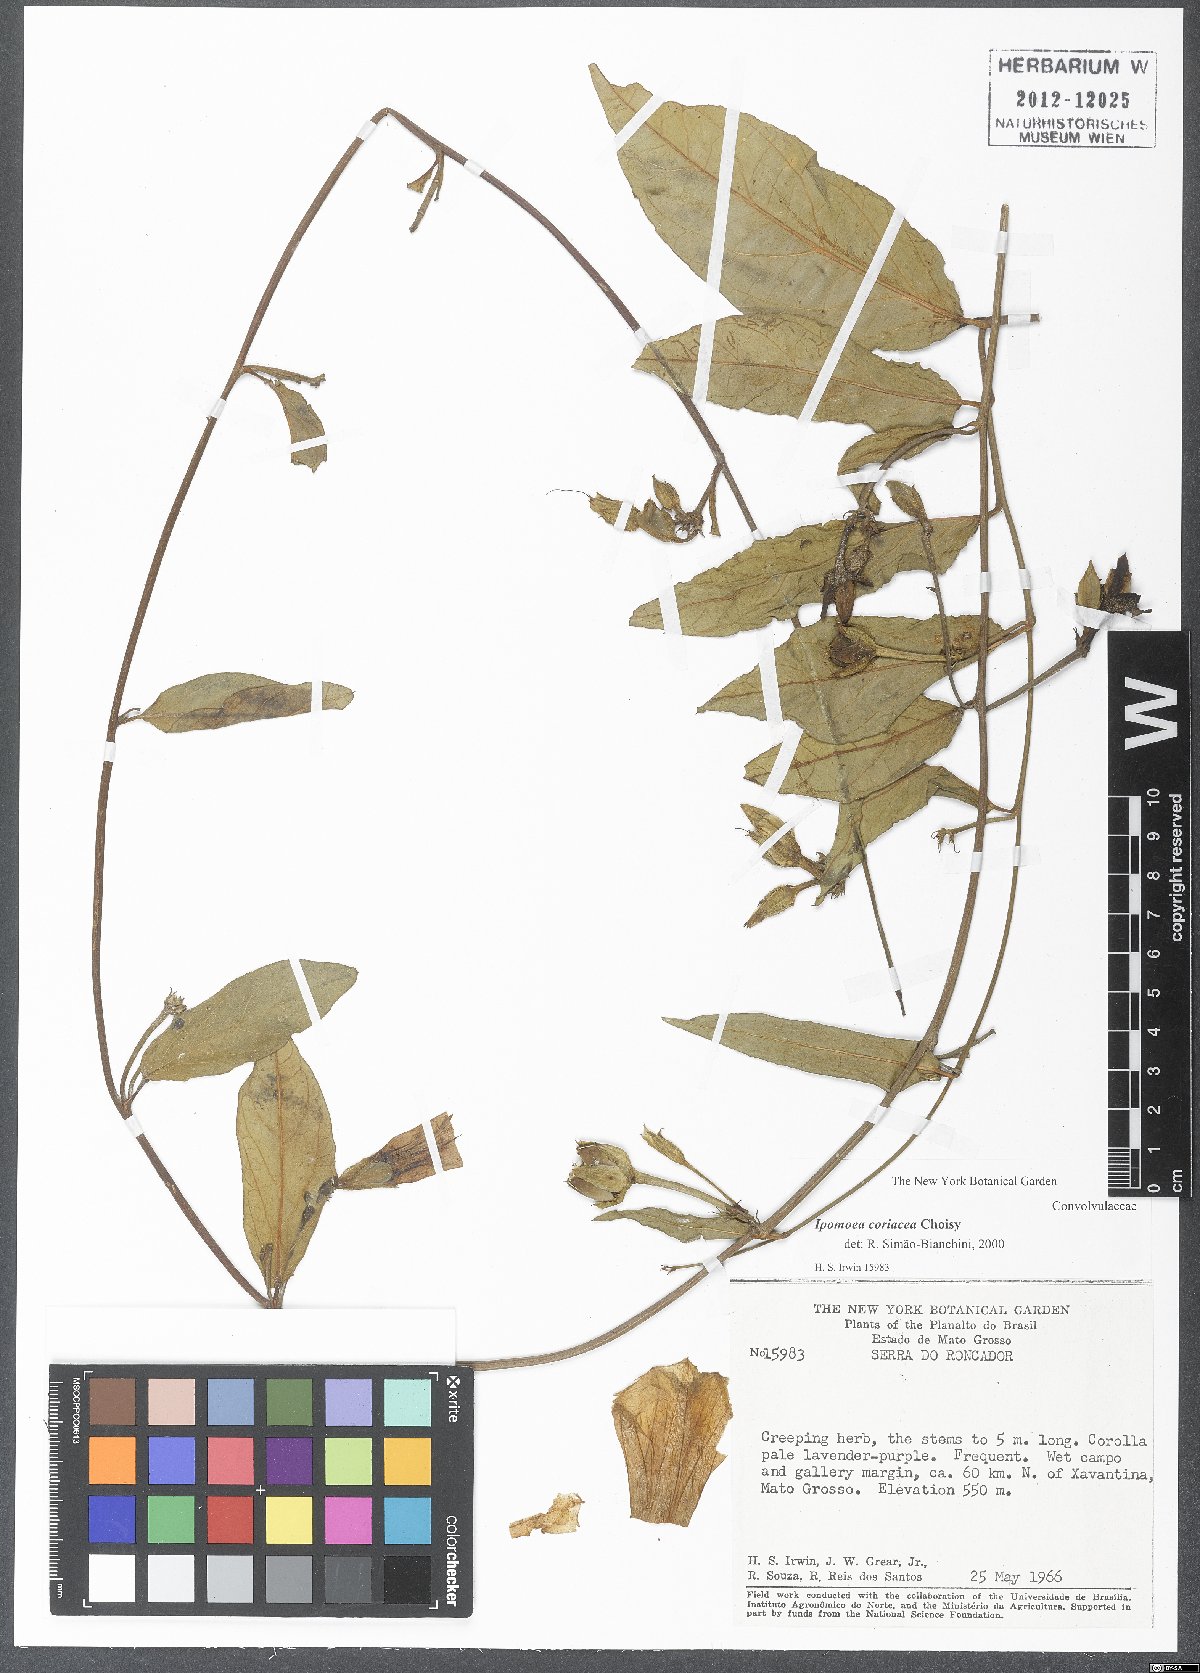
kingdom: Plantae
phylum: Tracheophyta
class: Magnoliopsida
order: Solanales
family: Convolvulaceae
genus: Ipomoea
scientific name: Ipomoea coriacea
